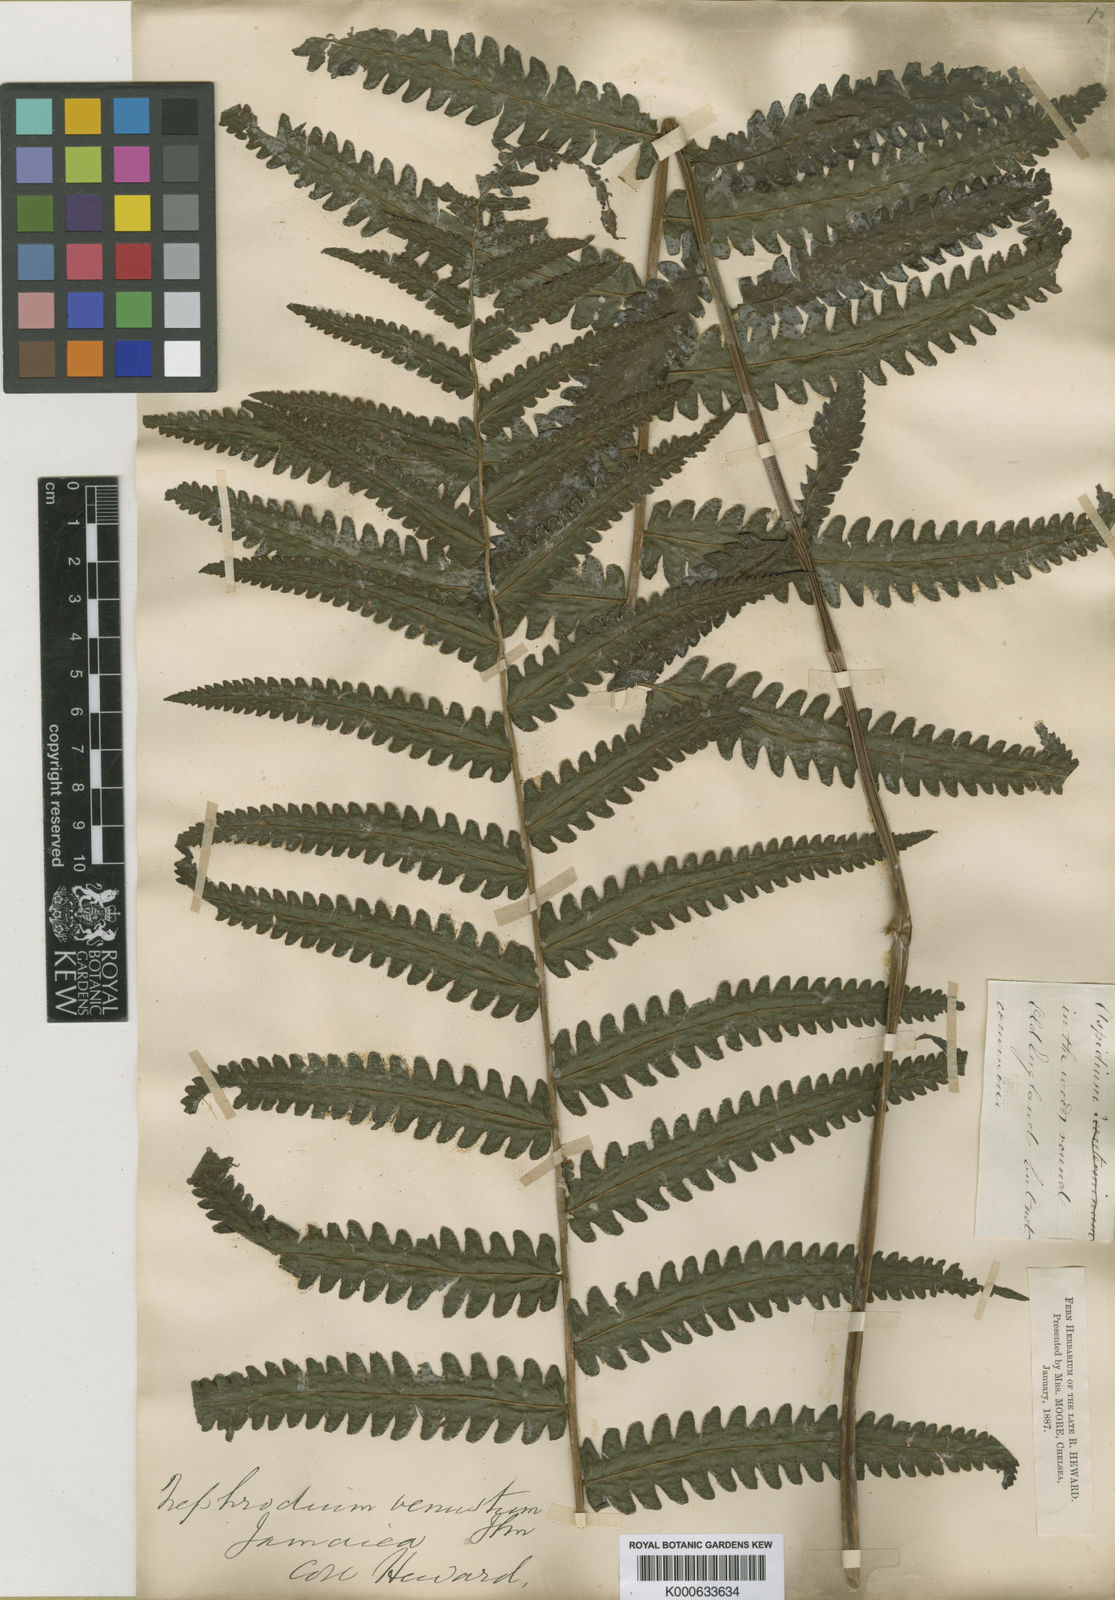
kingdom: Plantae
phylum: Tracheophyta
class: Polypodiopsida
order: Polypodiales
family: Thelypteridaceae
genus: Goniopteris
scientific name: Goniopteris venusta
